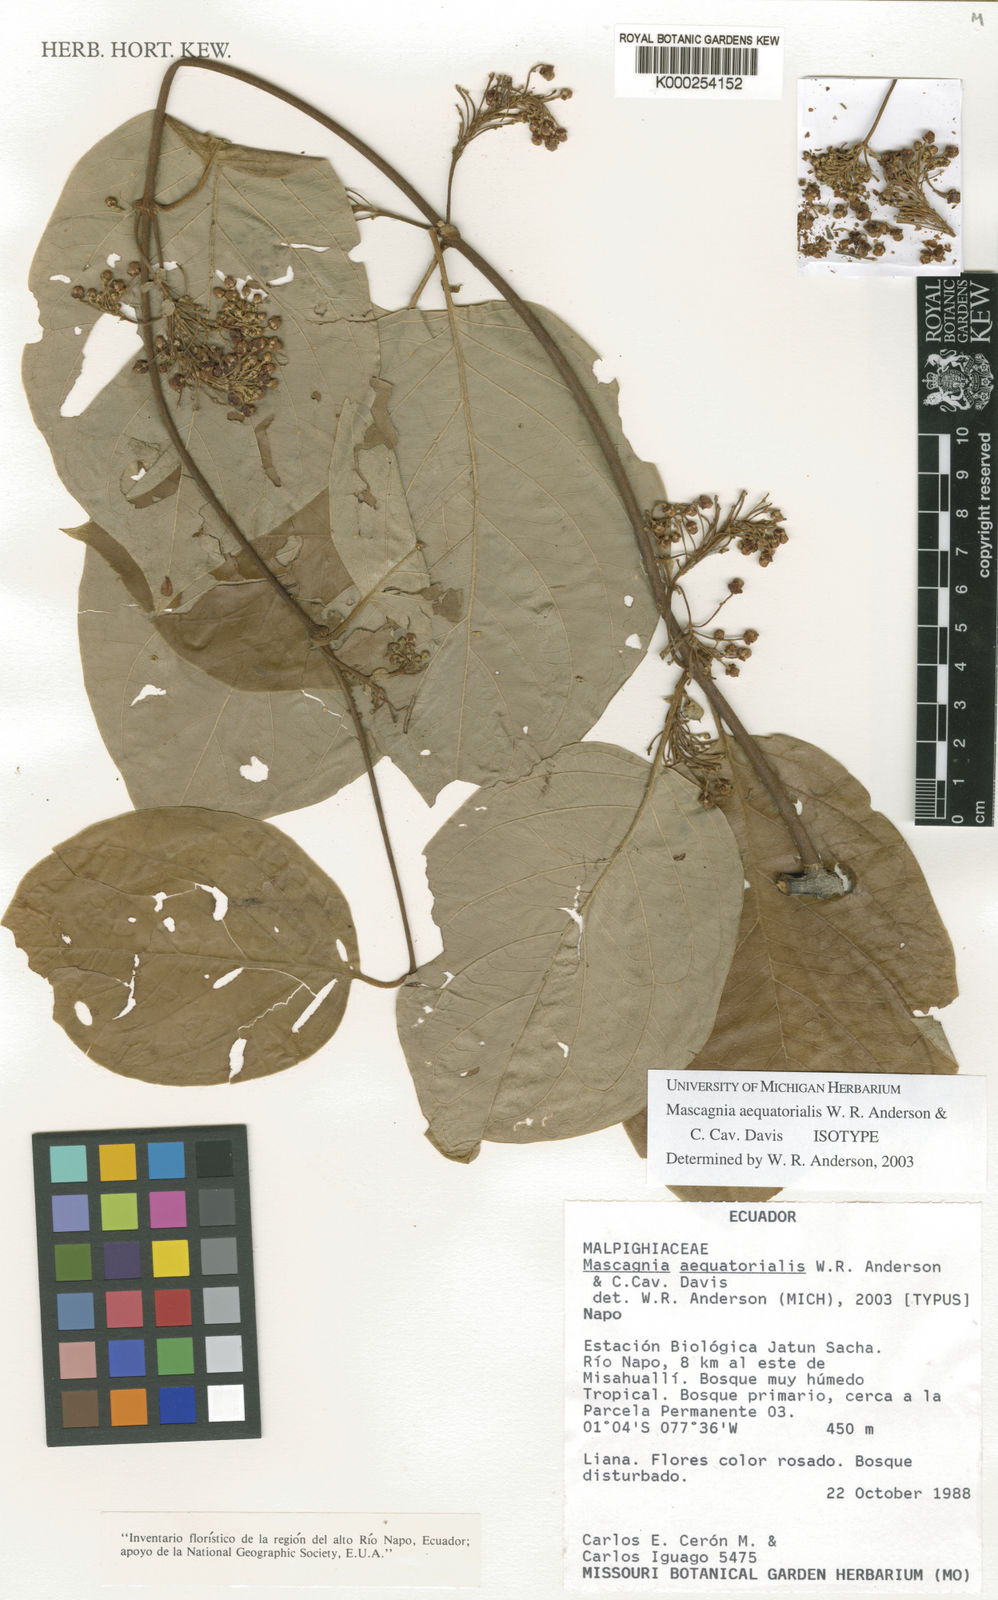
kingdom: Plantae
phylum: Tracheophyta
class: Magnoliopsida
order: Malpighiales
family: Malpighiaceae
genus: Mascagnia
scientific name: Mascagnia aequatorialis
